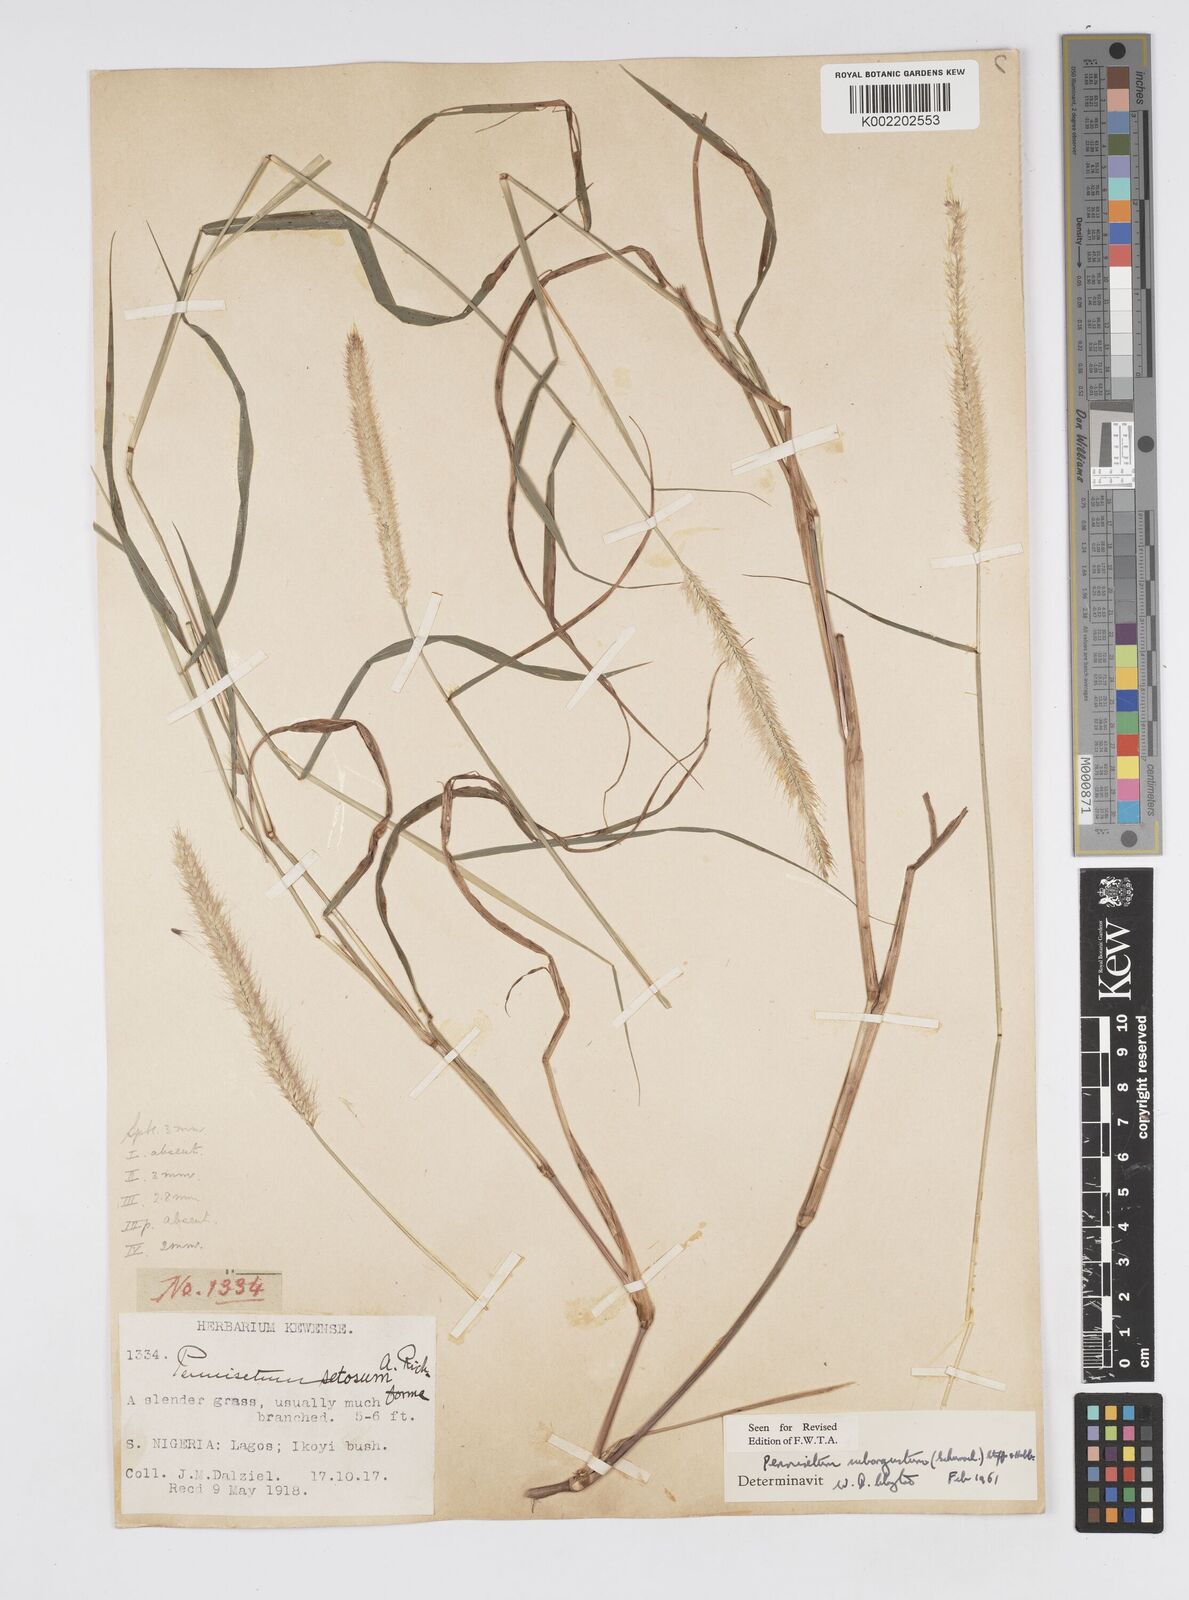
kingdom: Plantae
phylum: Tracheophyta
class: Liliopsida
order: Poales
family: Poaceae
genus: Setaria
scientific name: Setaria parviflora
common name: Knotroot bristle-grass
